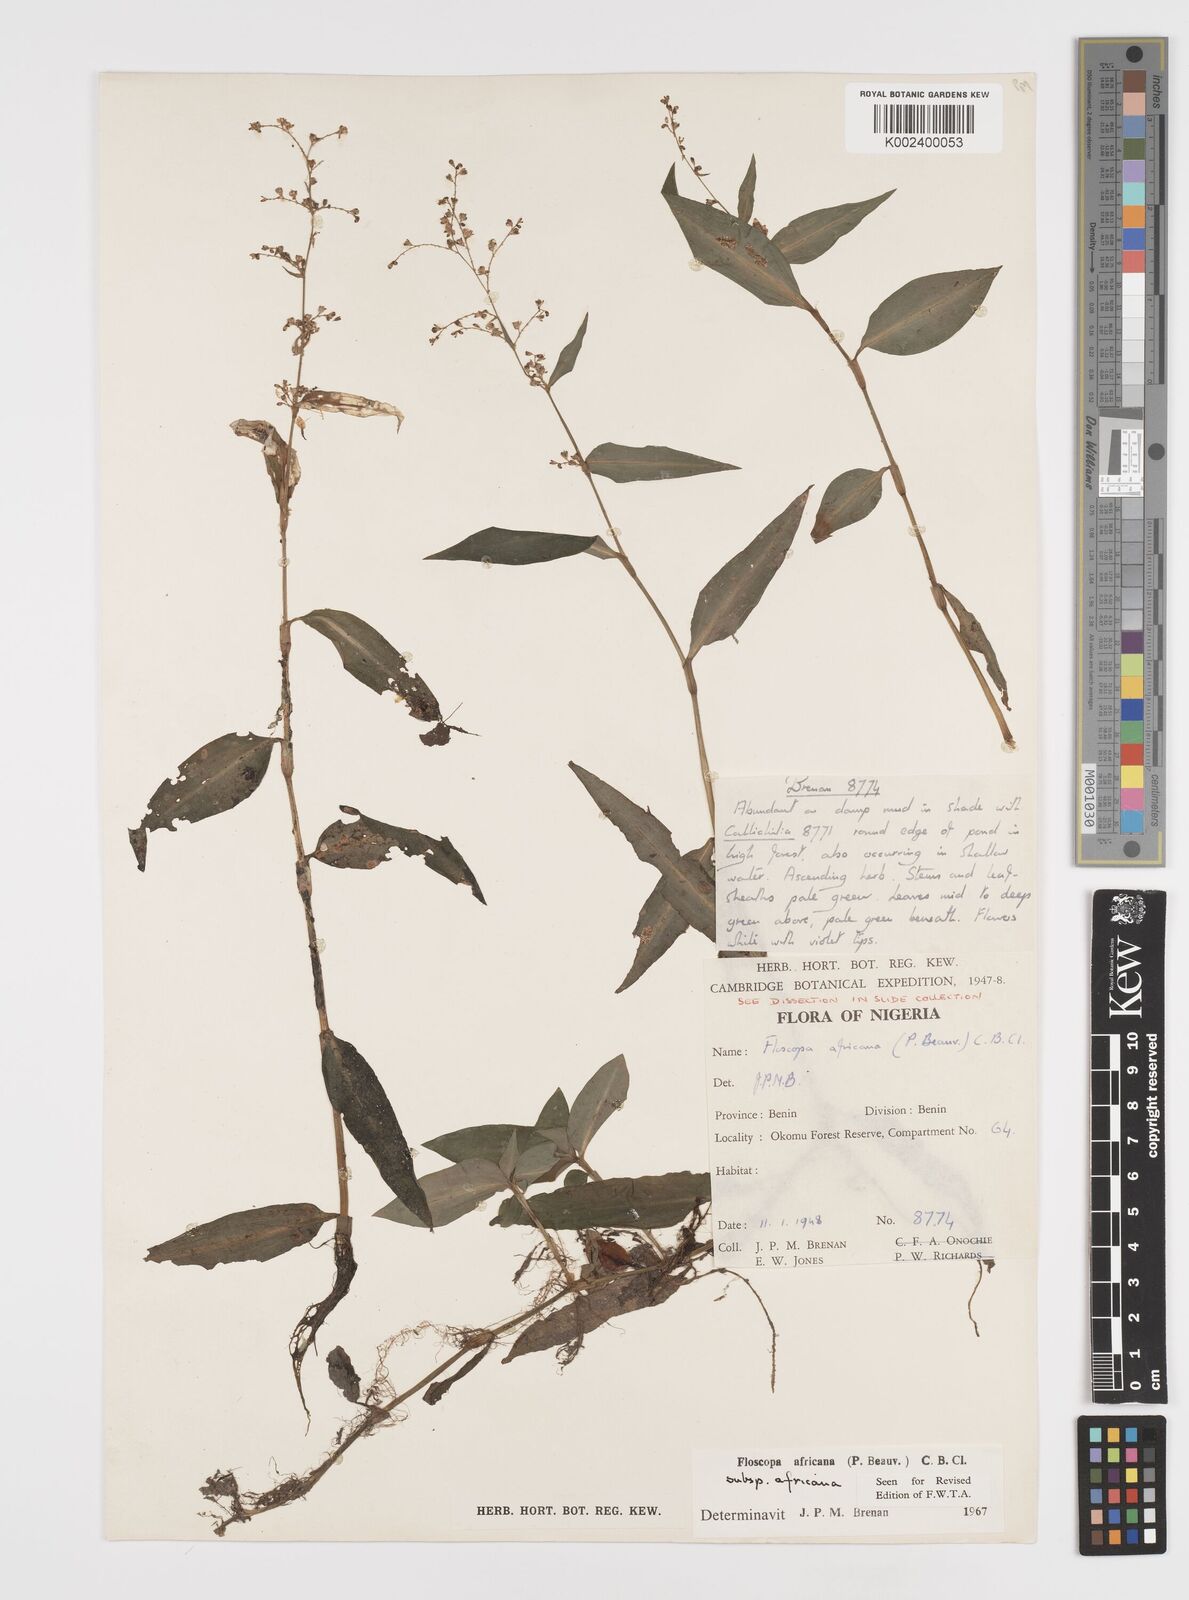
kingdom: Plantae
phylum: Tracheophyta
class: Liliopsida
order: Commelinales
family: Commelinaceae
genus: Floscopa
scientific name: Floscopa africana
